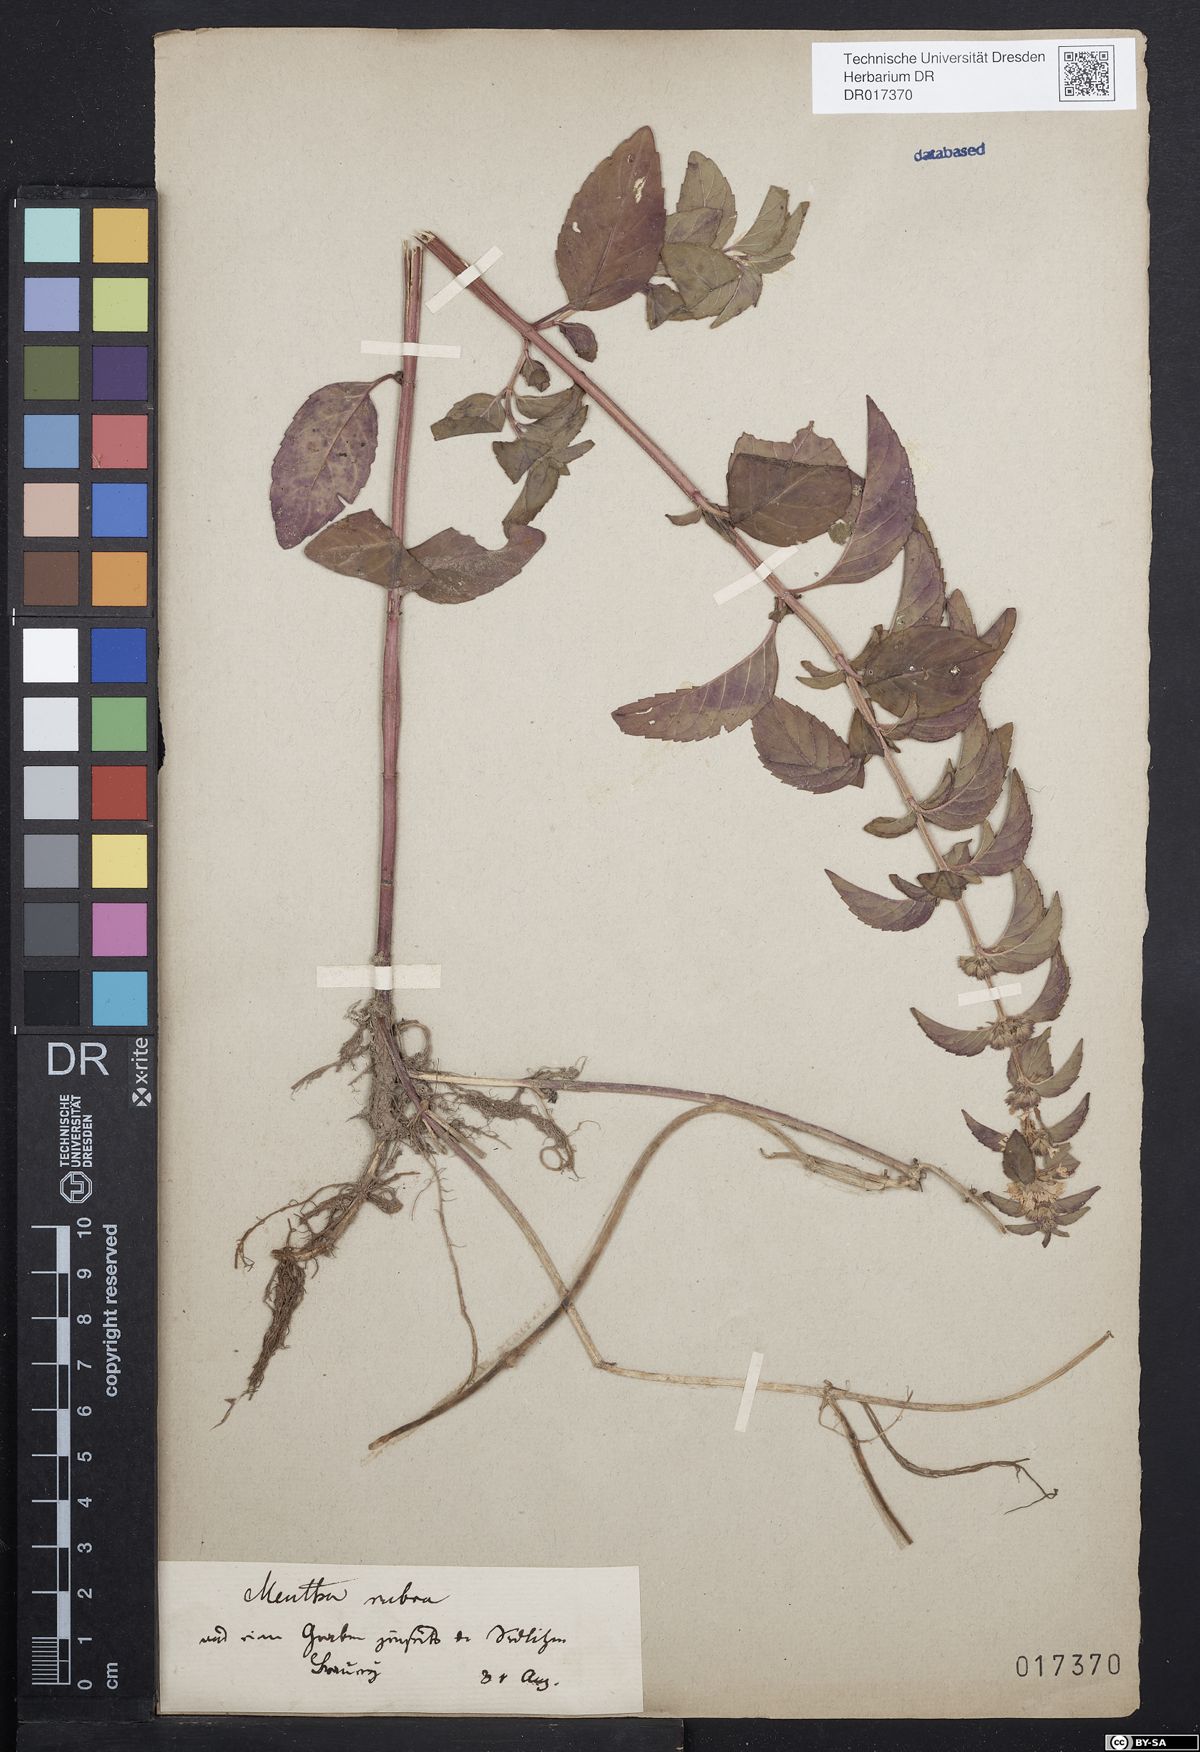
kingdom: Plantae
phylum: Tracheophyta
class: Magnoliopsida
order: Lamiales
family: Lamiaceae
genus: Mentha
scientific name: Mentha verticillata
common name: Mint
